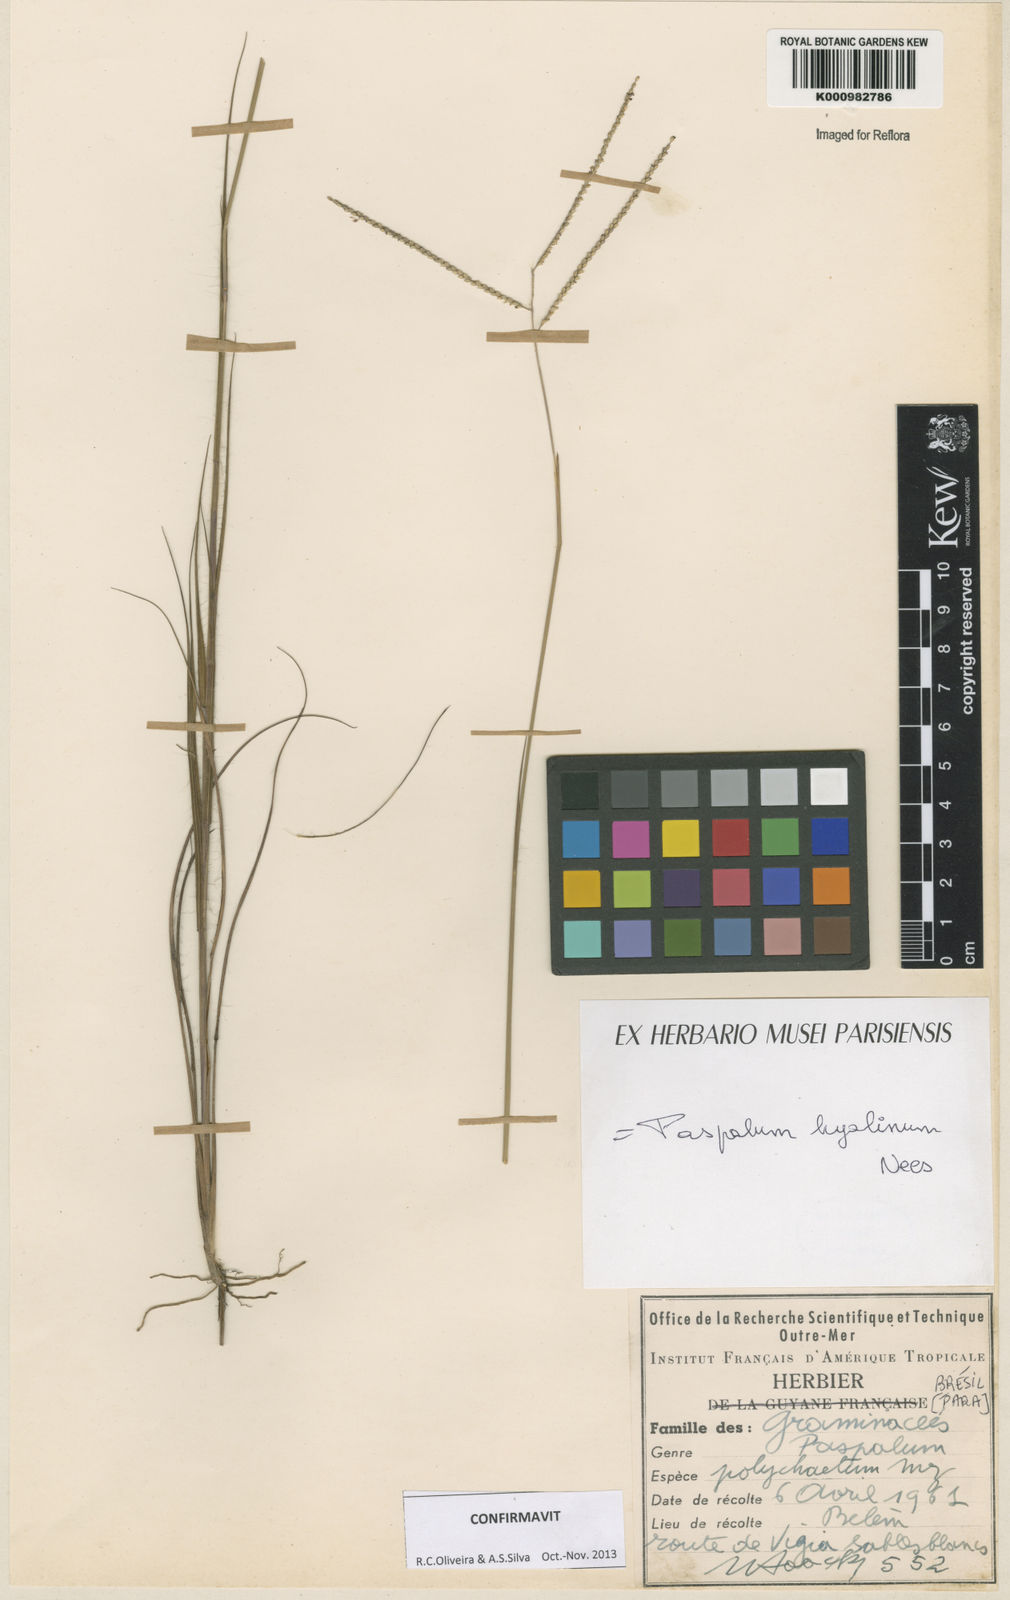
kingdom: Plantae
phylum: Tracheophyta
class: Liliopsida
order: Poales
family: Poaceae
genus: Paspalum
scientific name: Paspalum hyalinum
